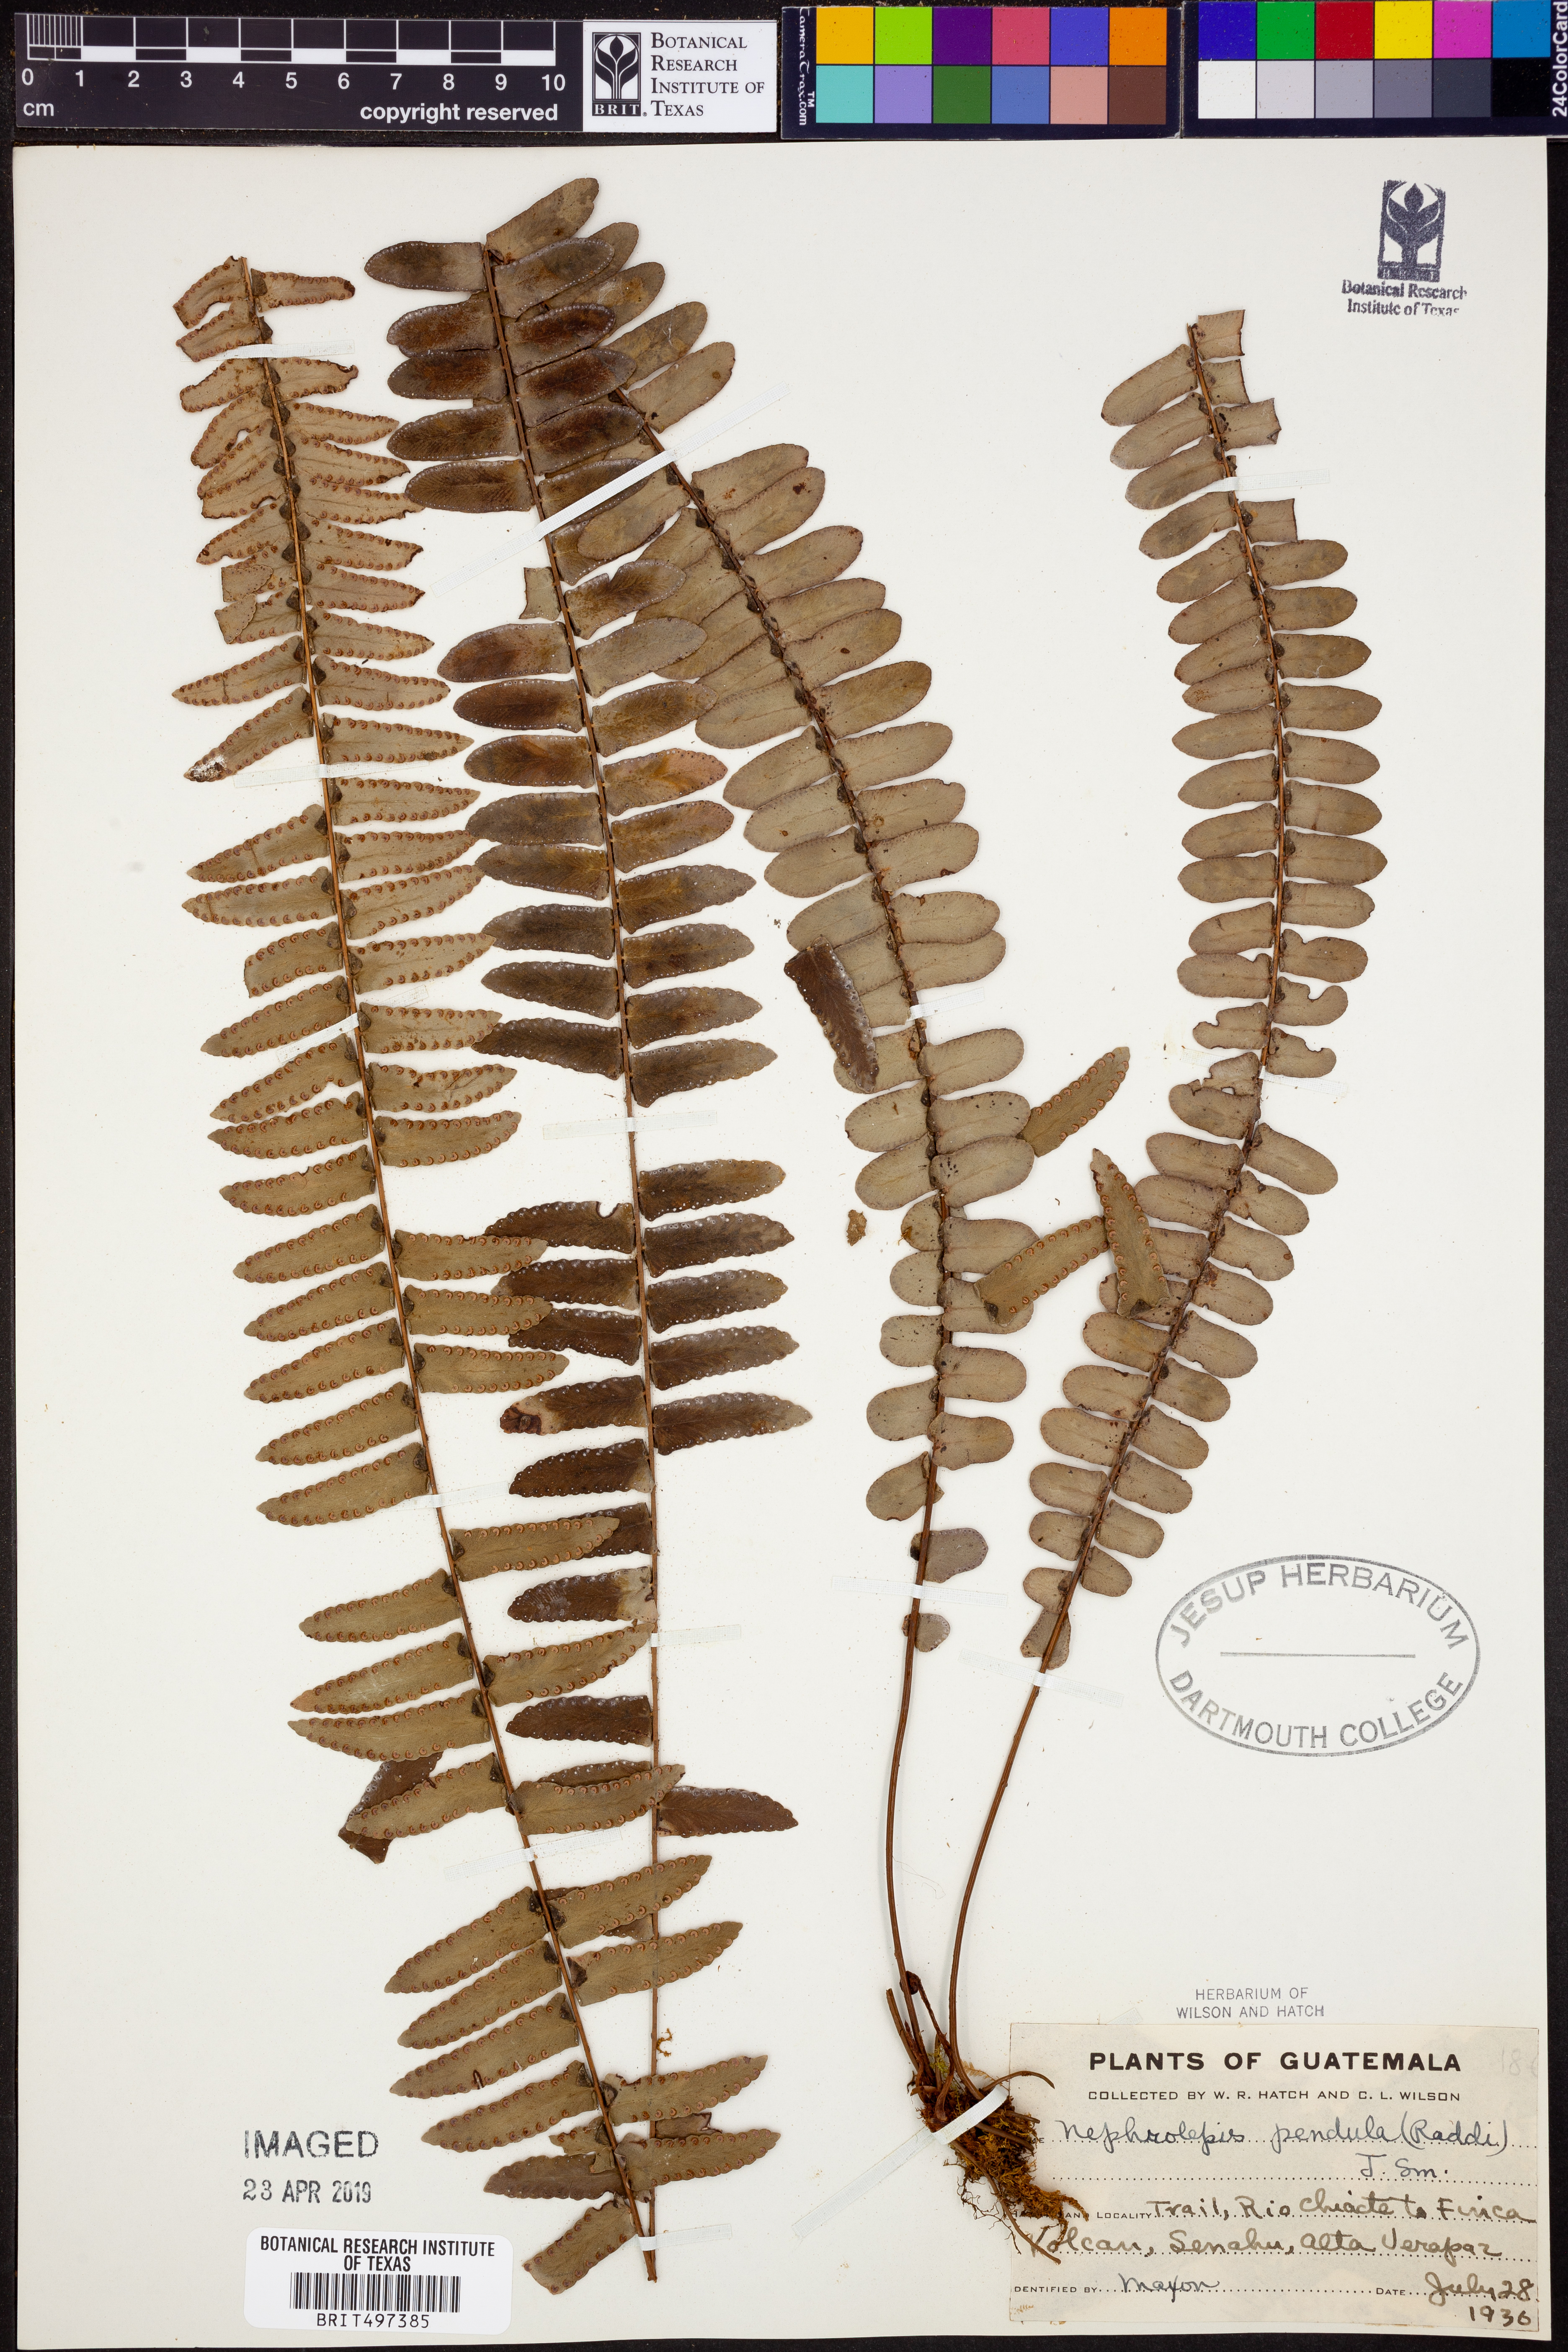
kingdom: Plantae
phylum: Tracheophyta
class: Polypodiopsida
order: Polypodiales
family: Nephrolepidaceae
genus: Nephrolepis
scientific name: Nephrolepis pendula
